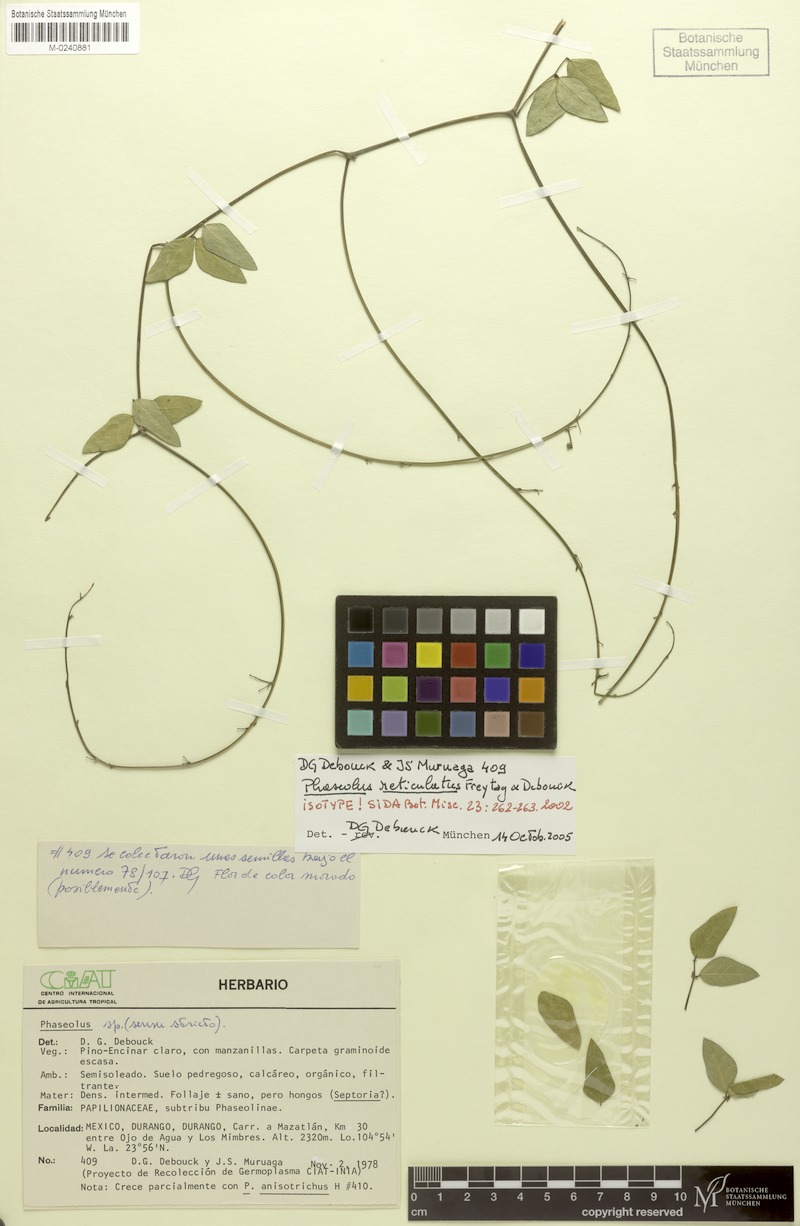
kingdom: Plantae
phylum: Tracheophyta
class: Magnoliopsida
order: Fabales
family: Fabaceae
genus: Phaseolus
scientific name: Phaseolus reticulatus
